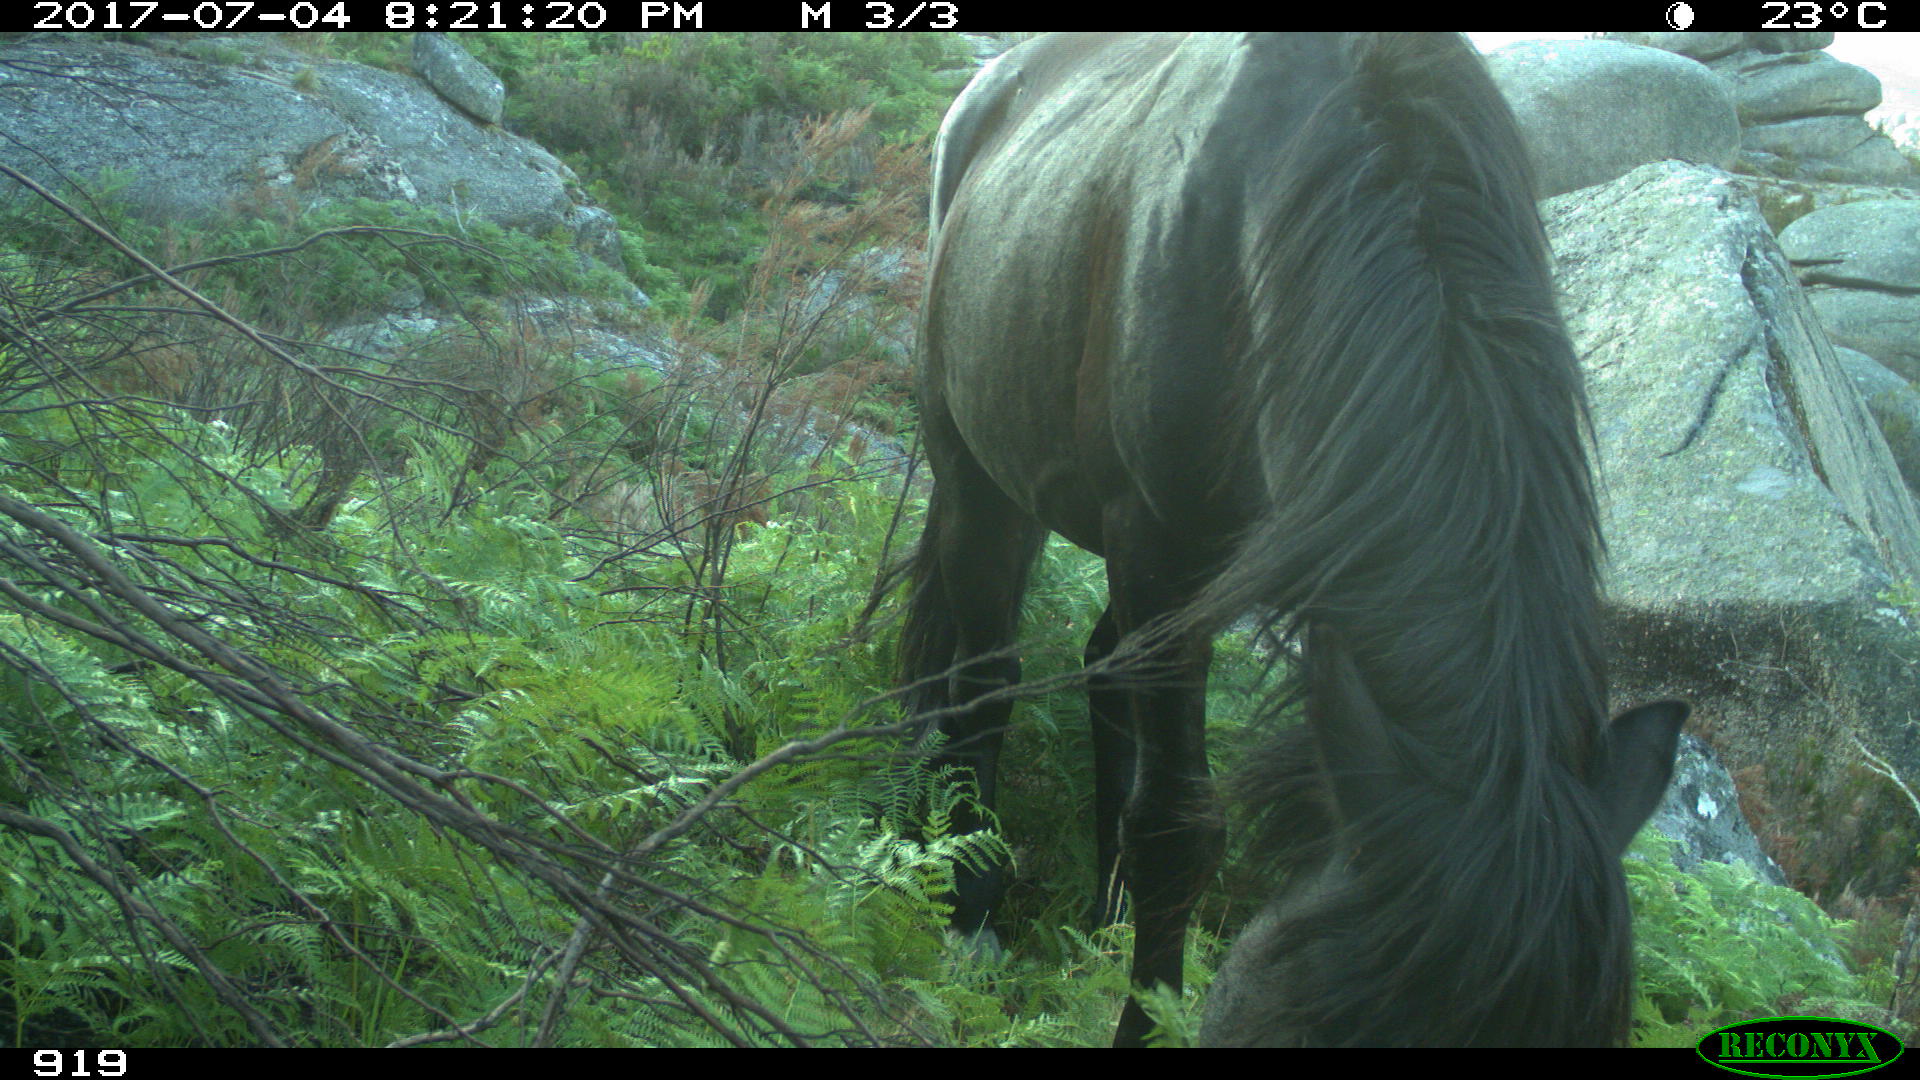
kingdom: Animalia
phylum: Chordata
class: Mammalia
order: Perissodactyla
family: Equidae
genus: Equus
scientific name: Equus caballus
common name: Horse
